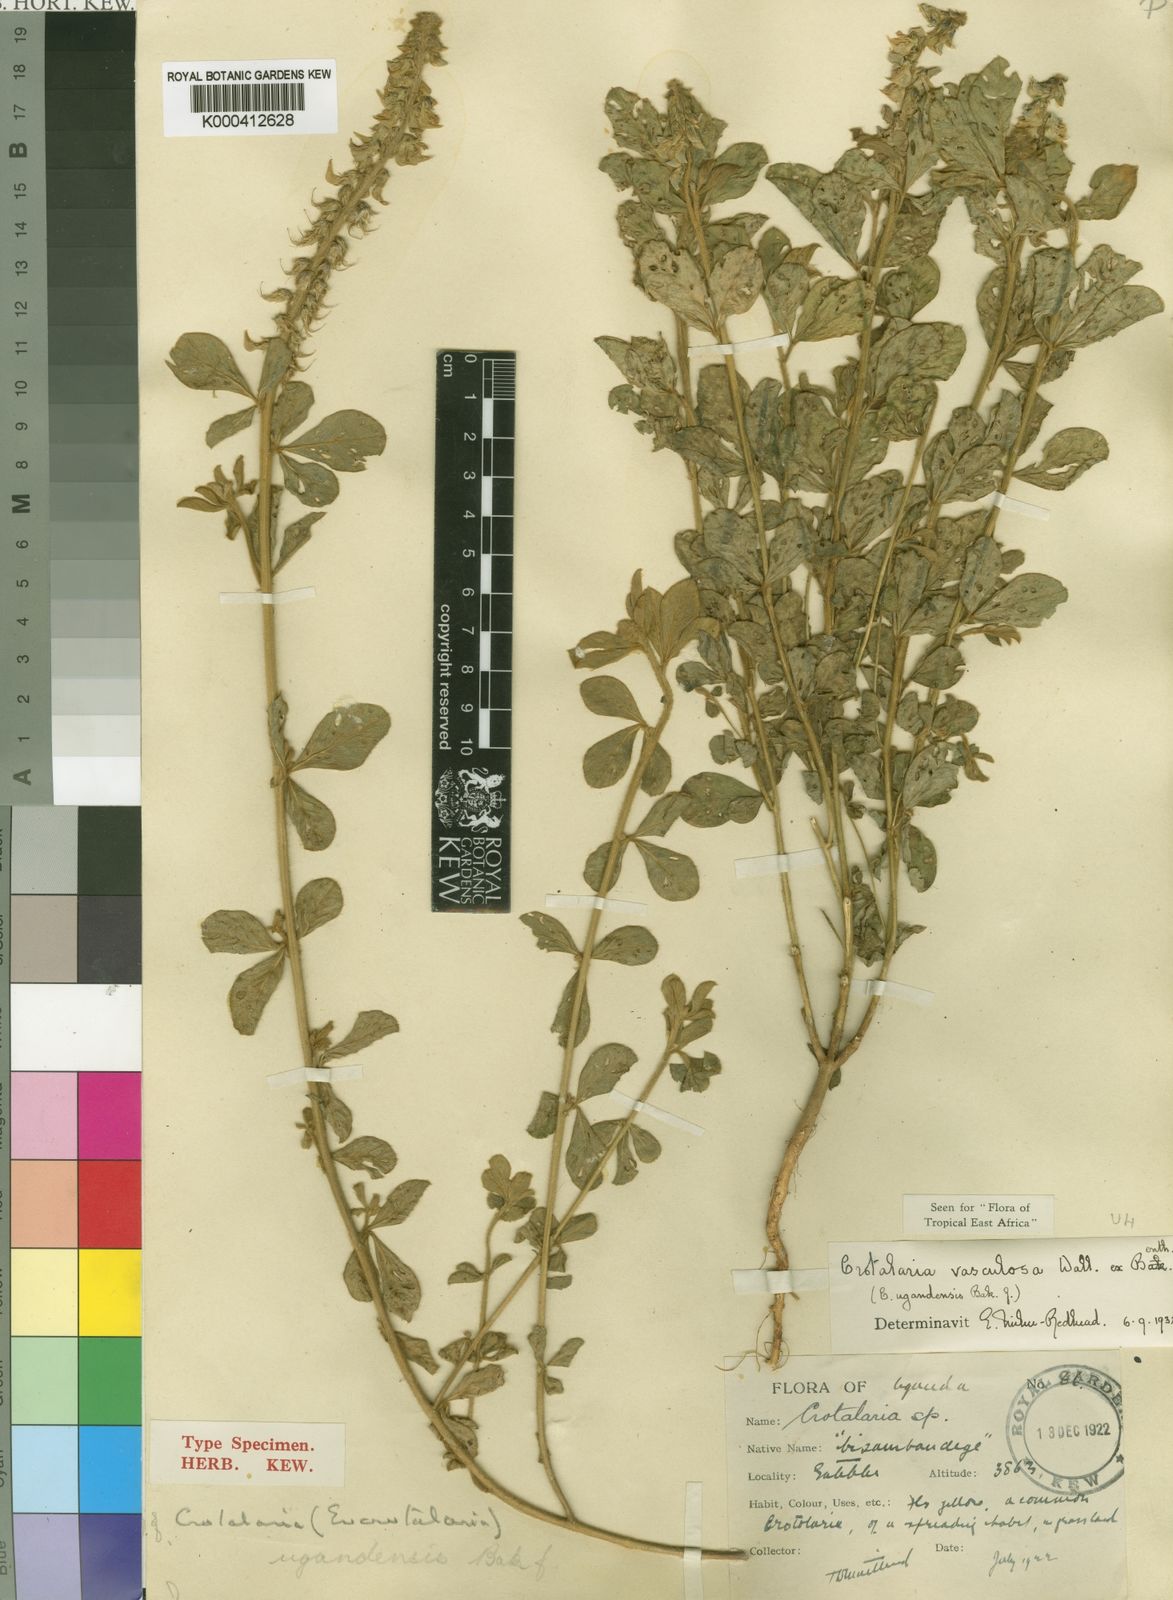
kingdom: Plantae
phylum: Tracheophyta
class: Magnoliopsida
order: Fabales
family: Fabaceae
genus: Crotalaria
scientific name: Crotalaria vasculosa
